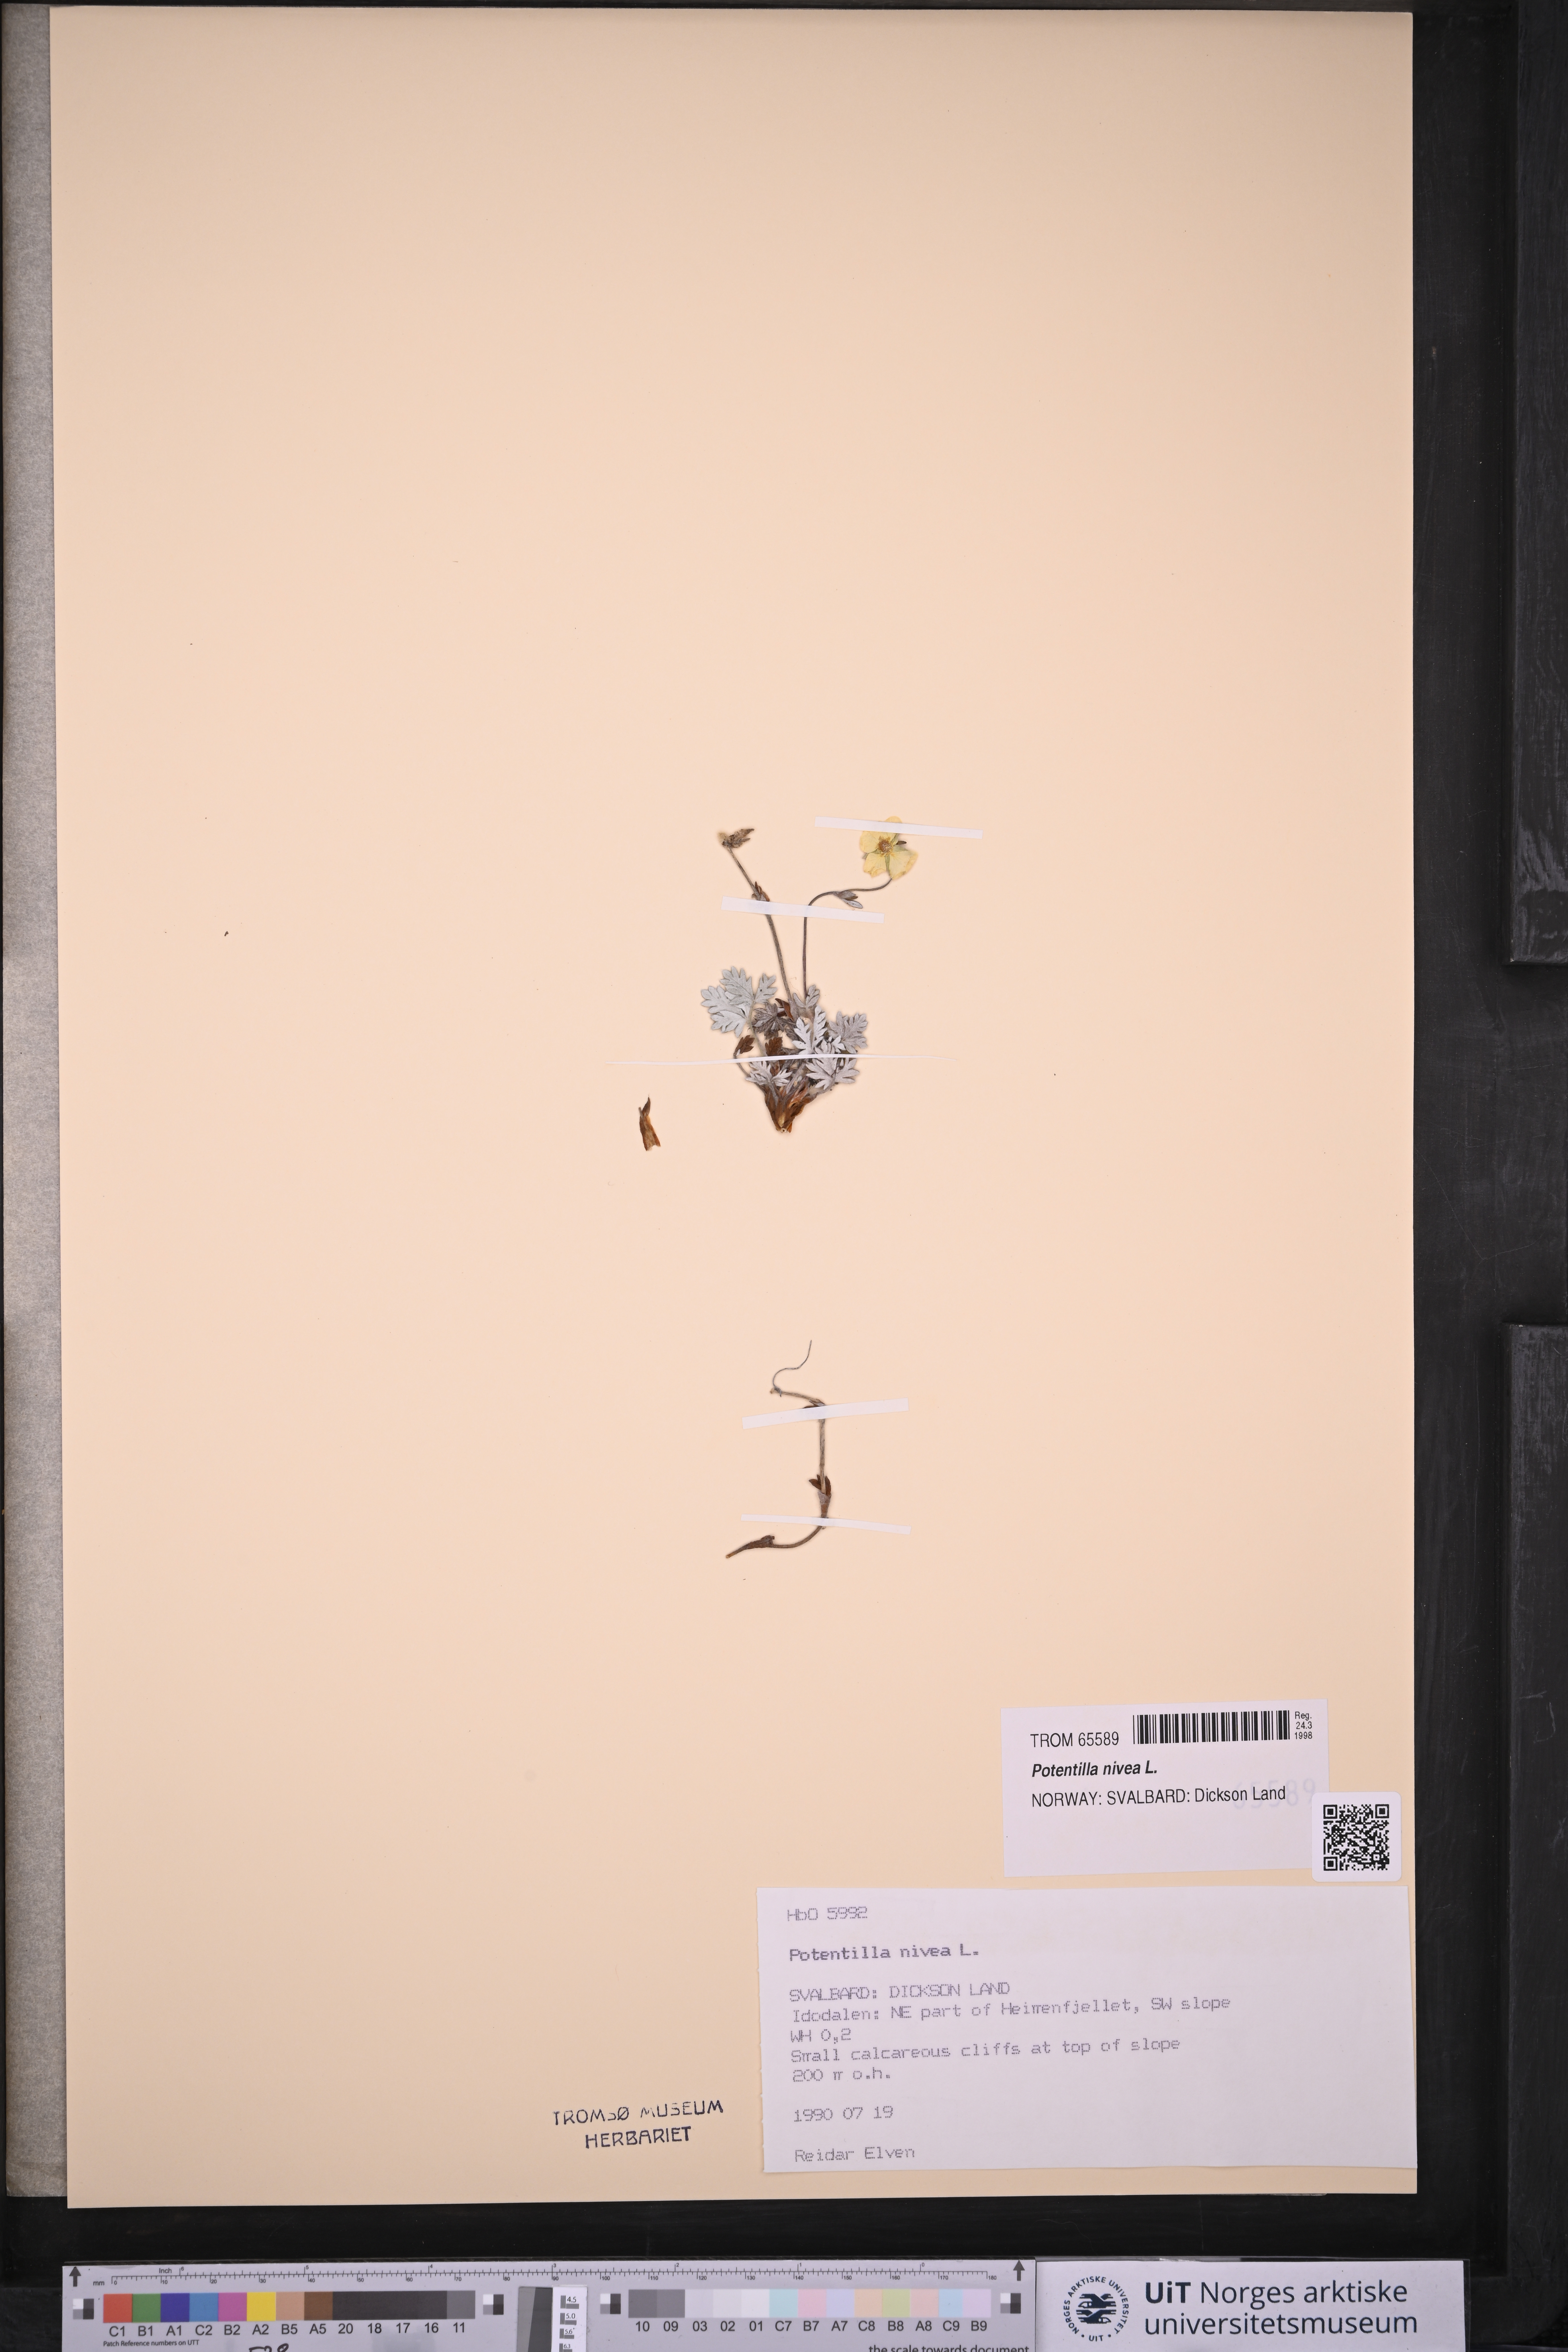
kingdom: Plantae
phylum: Tracheophyta
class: Magnoliopsida
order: Rosales
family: Rosaceae
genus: Potentilla
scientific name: Potentilla arenosa
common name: Bluff cinquefoil
